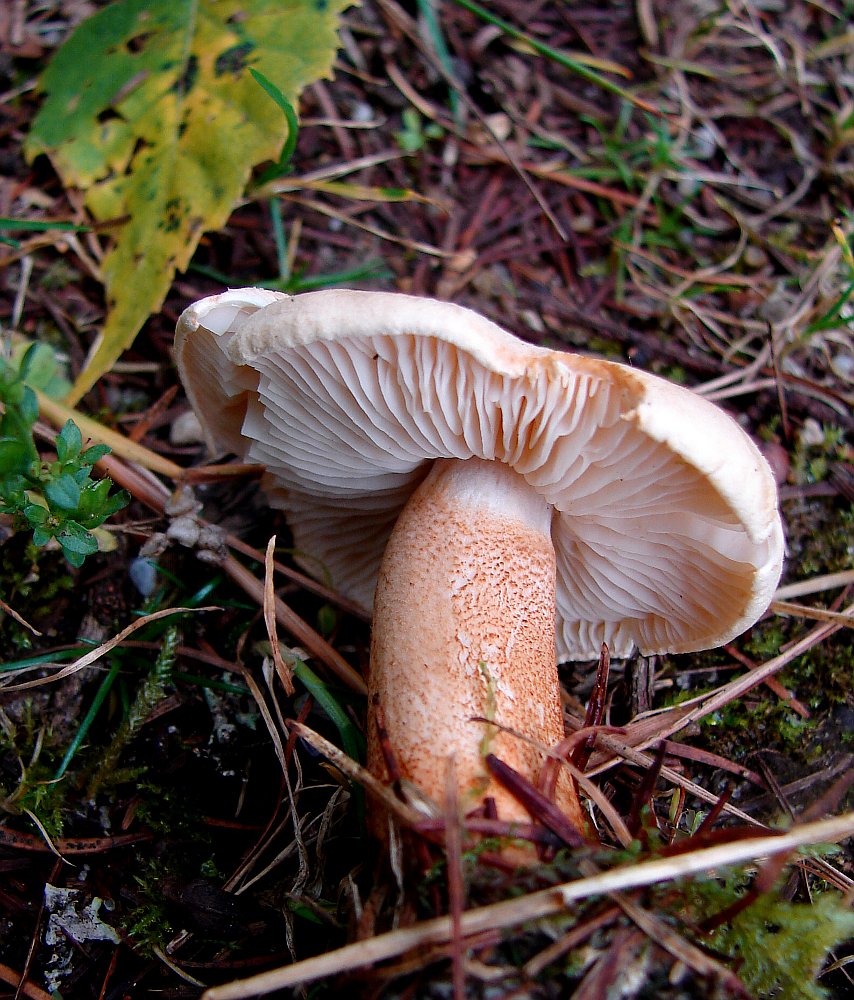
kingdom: Fungi
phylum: Basidiomycota
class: Agaricomycetes
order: Agaricales
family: Tricholomataceae
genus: Tricholoma
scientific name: Tricholoma psammopus
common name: grynstokket ridderhat
